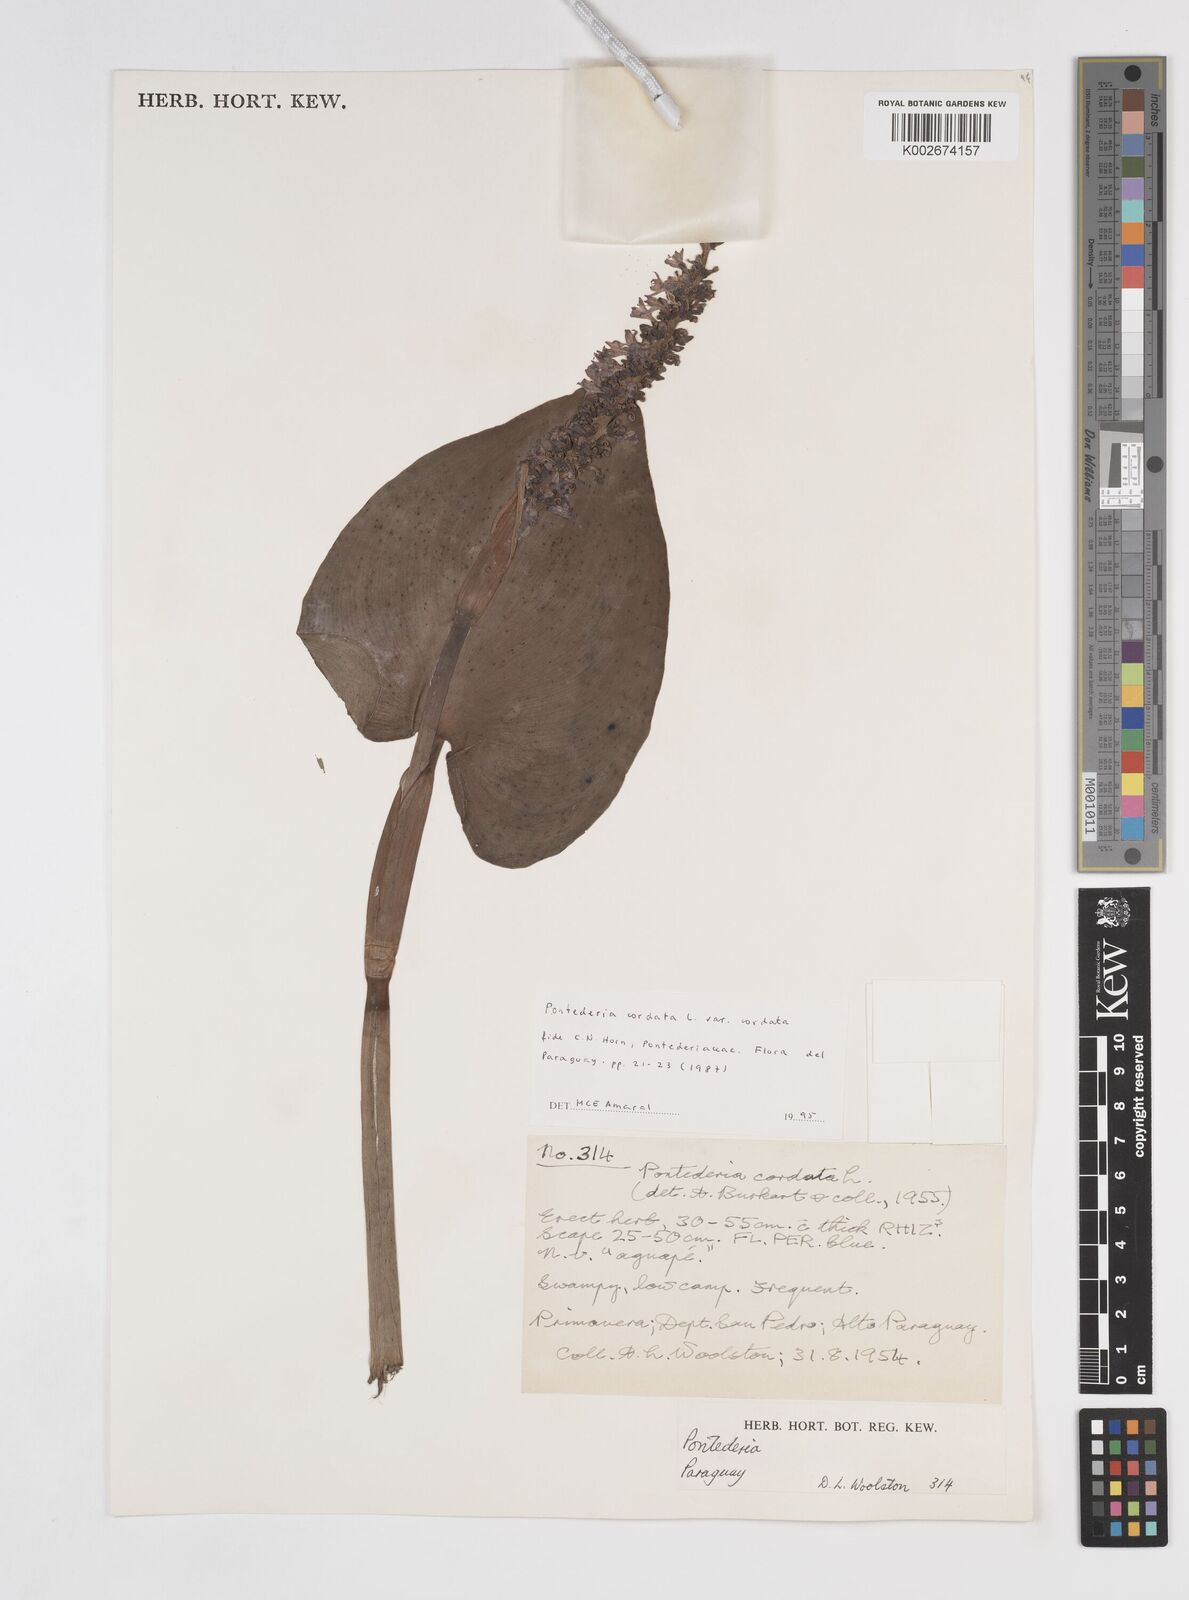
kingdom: Plantae
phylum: Tracheophyta
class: Liliopsida
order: Commelinales
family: Pontederiaceae
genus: Pontederia
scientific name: Pontederia
